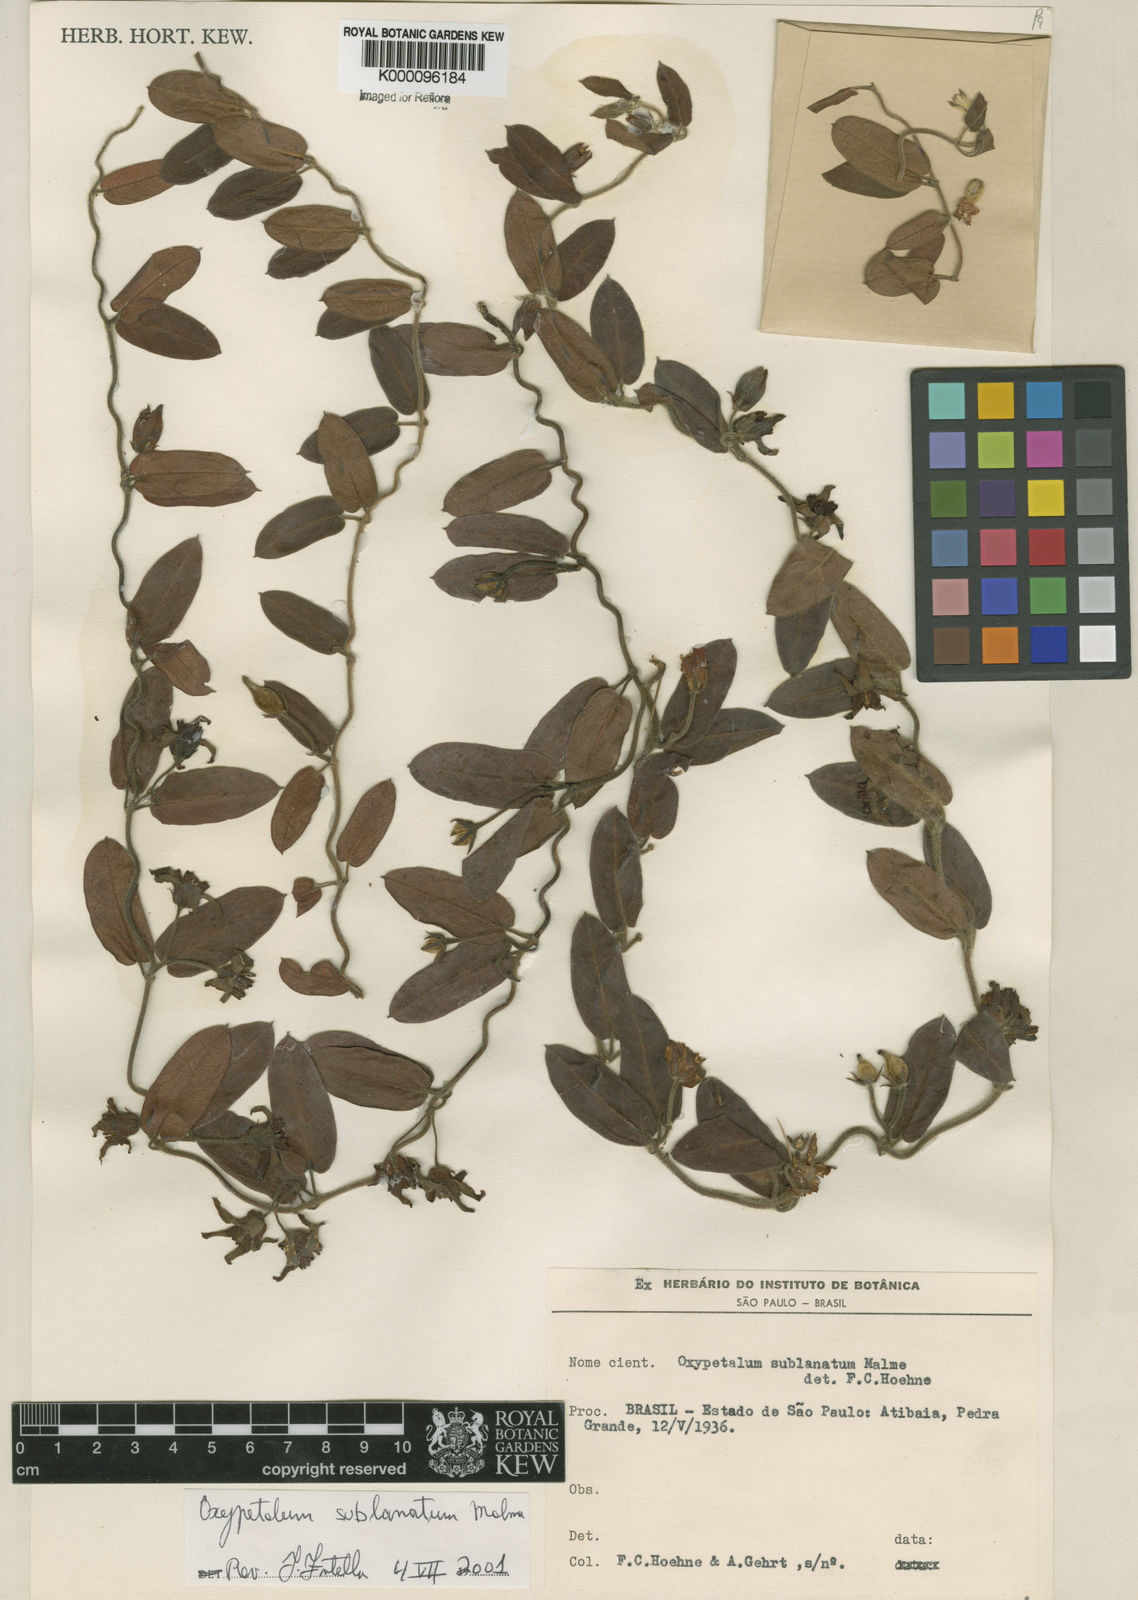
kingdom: Plantae
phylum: Tracheophyta
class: Magnoliopsida
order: Gentianales
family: Apocynaceae
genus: Oxypetalum
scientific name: Oxypetalum sublanatum
